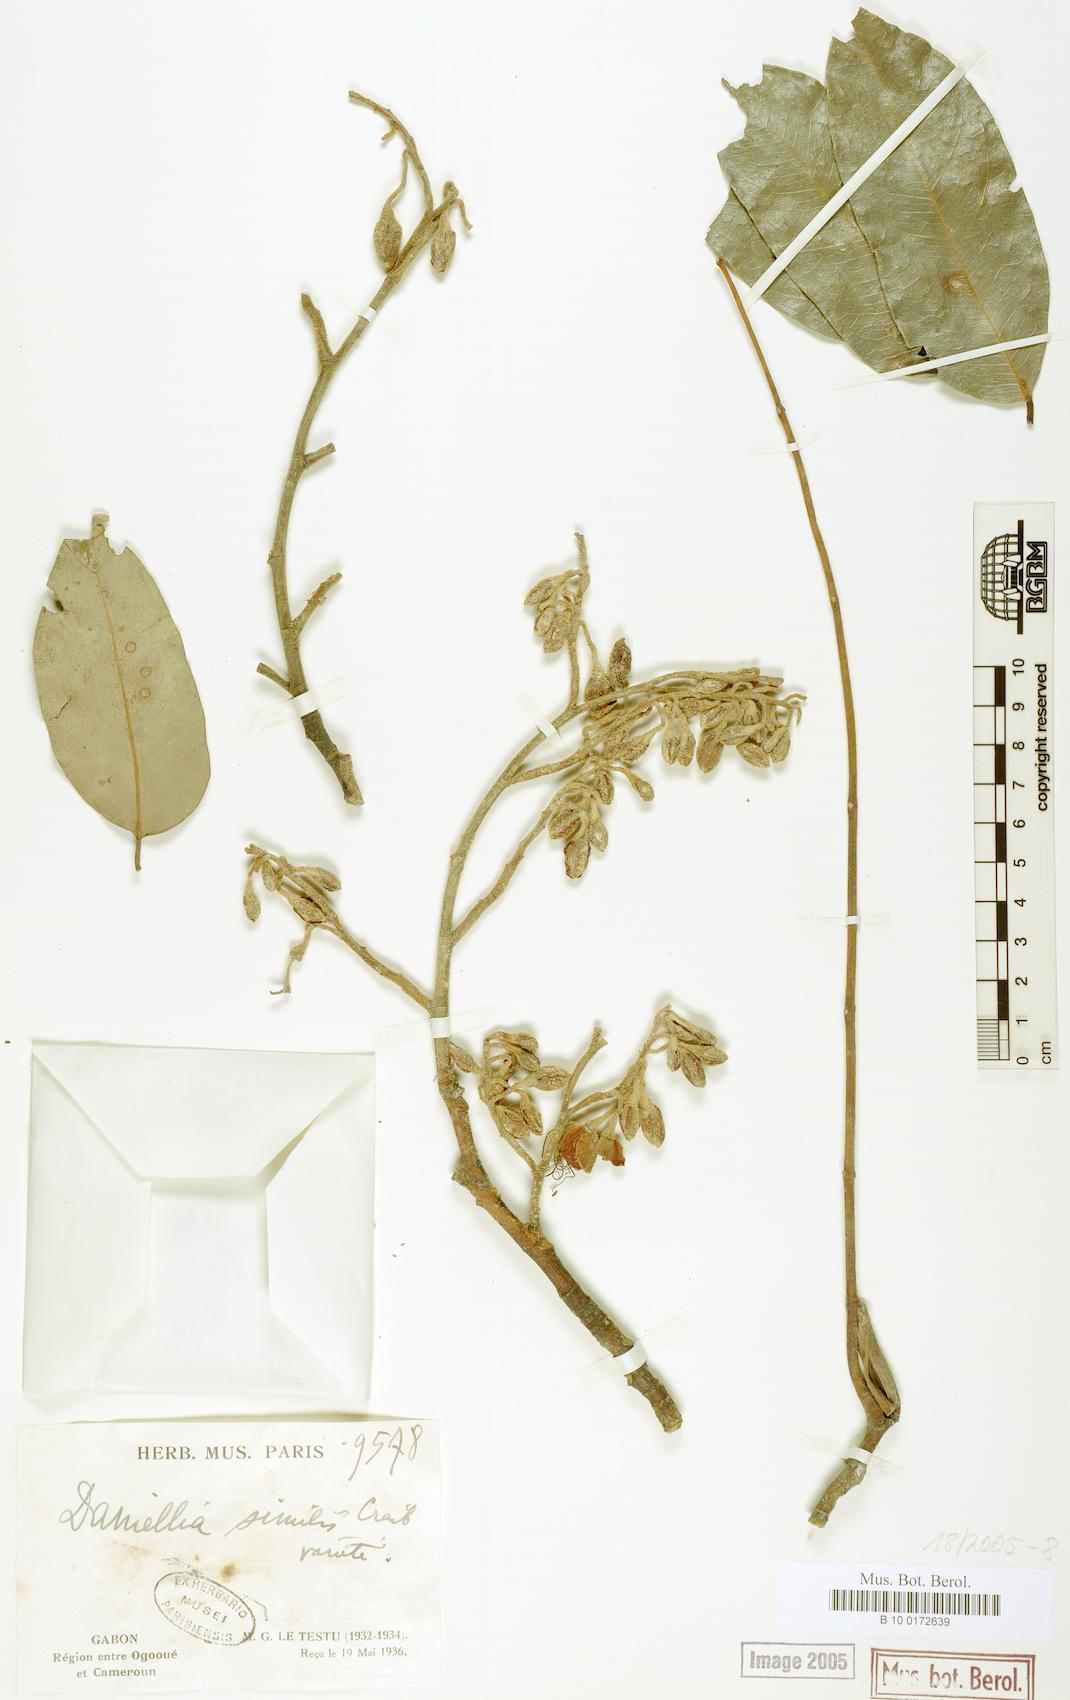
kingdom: Plantae
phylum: Tracheophyta
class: Magnoliopsida
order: Fabales
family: Fabaceae
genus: Daniellia
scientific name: Daniellia ogea
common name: Accra copal
